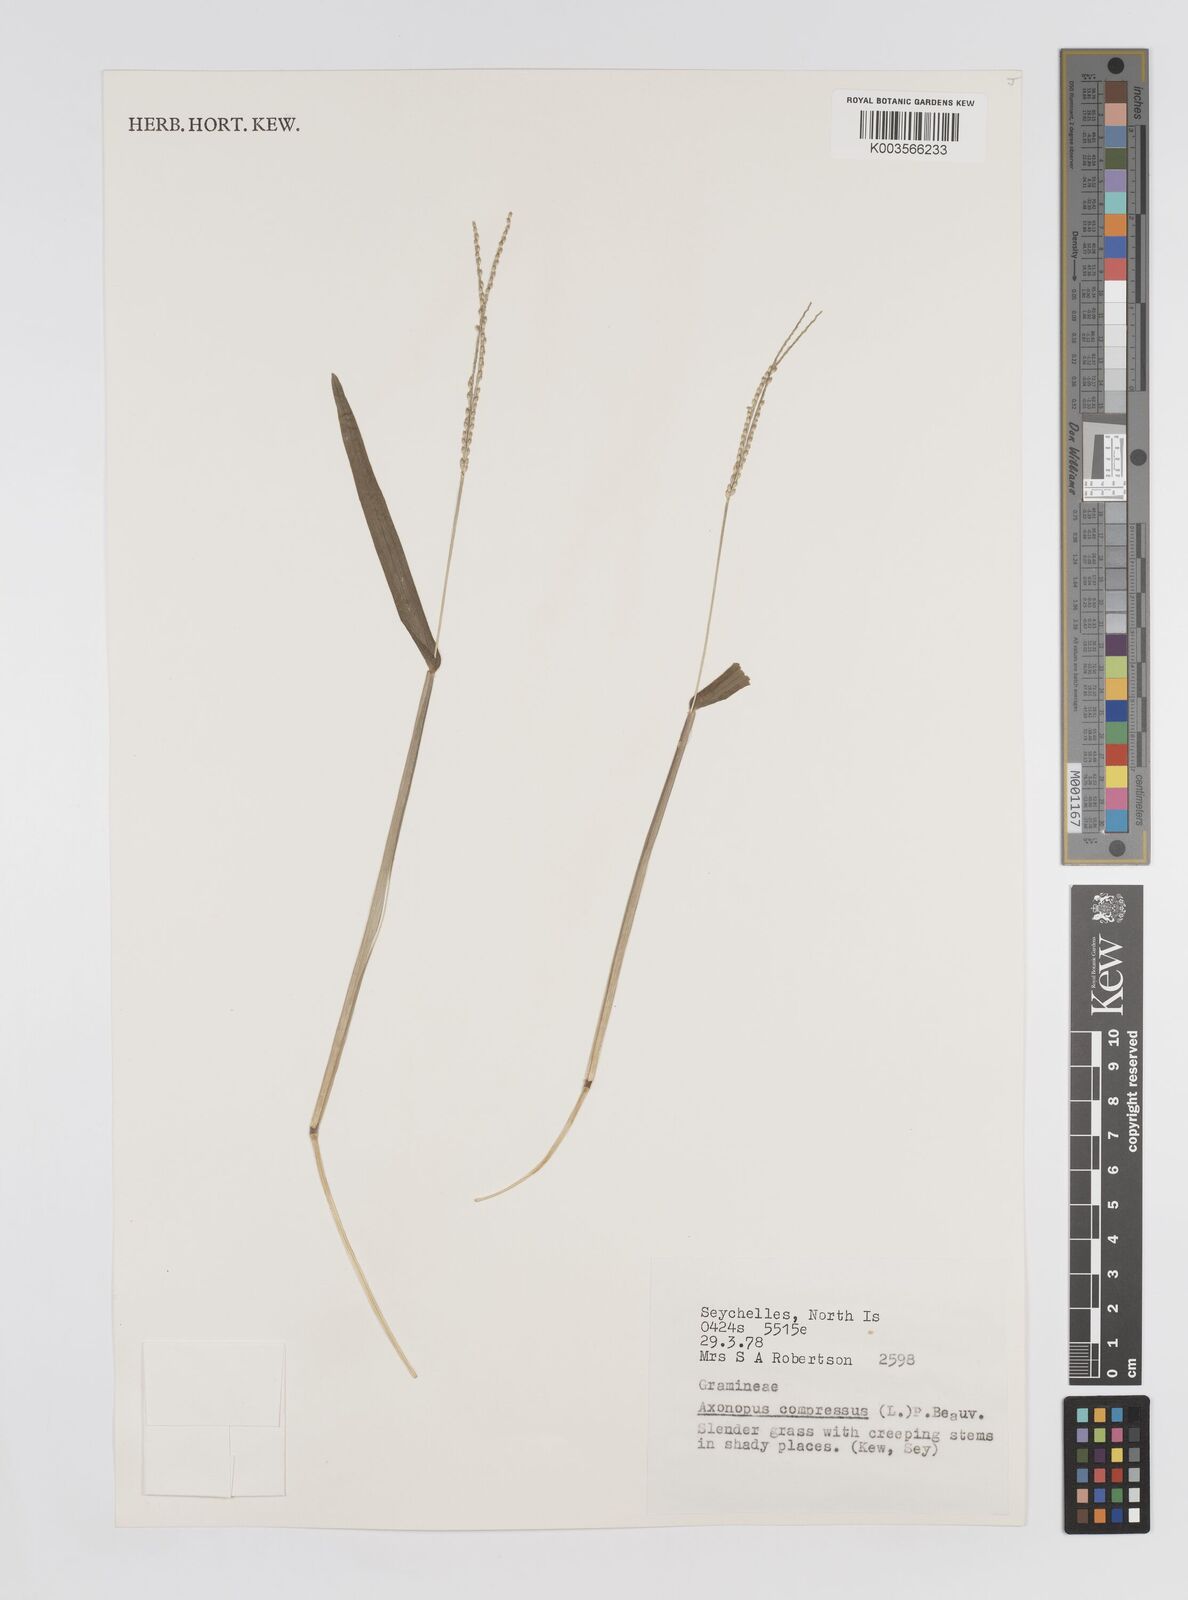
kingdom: Plantae
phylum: Tracheophyta
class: Liliopsida
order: Poales
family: Poaceae
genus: Axonopus
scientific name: Axonopus compressus
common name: American carpet grass
